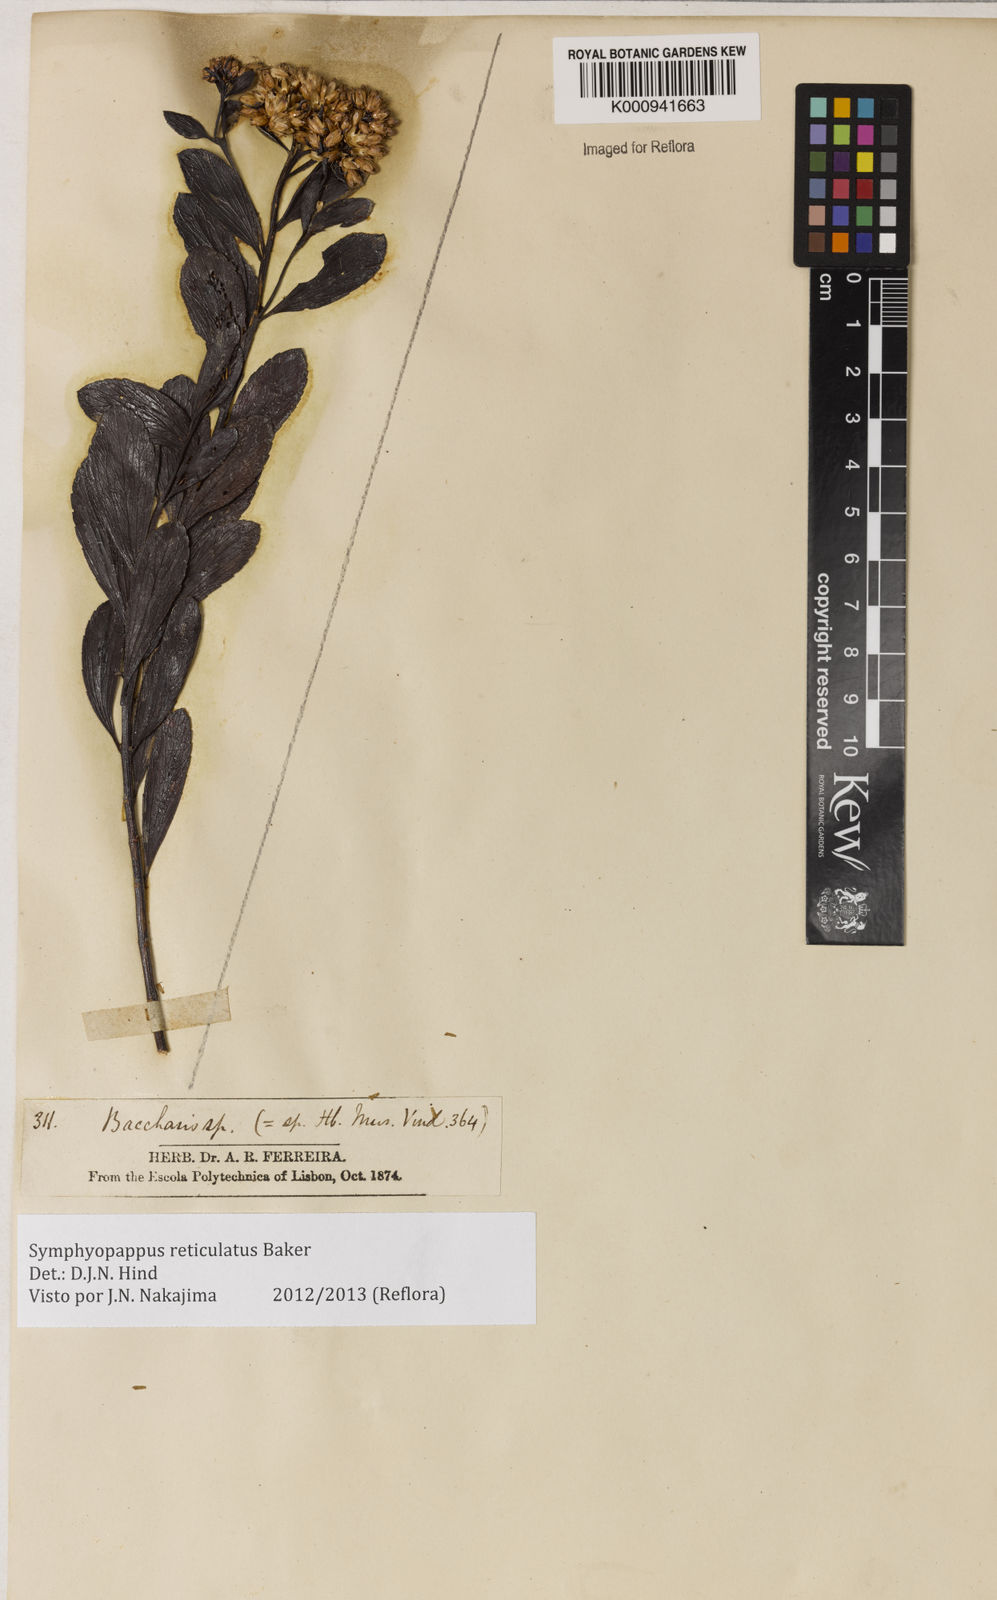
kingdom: Plantae
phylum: Tracheophyta
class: Magnoliopsida
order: Asterales
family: Asteraceae
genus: Symphyopappus
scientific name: Symphyopappus
